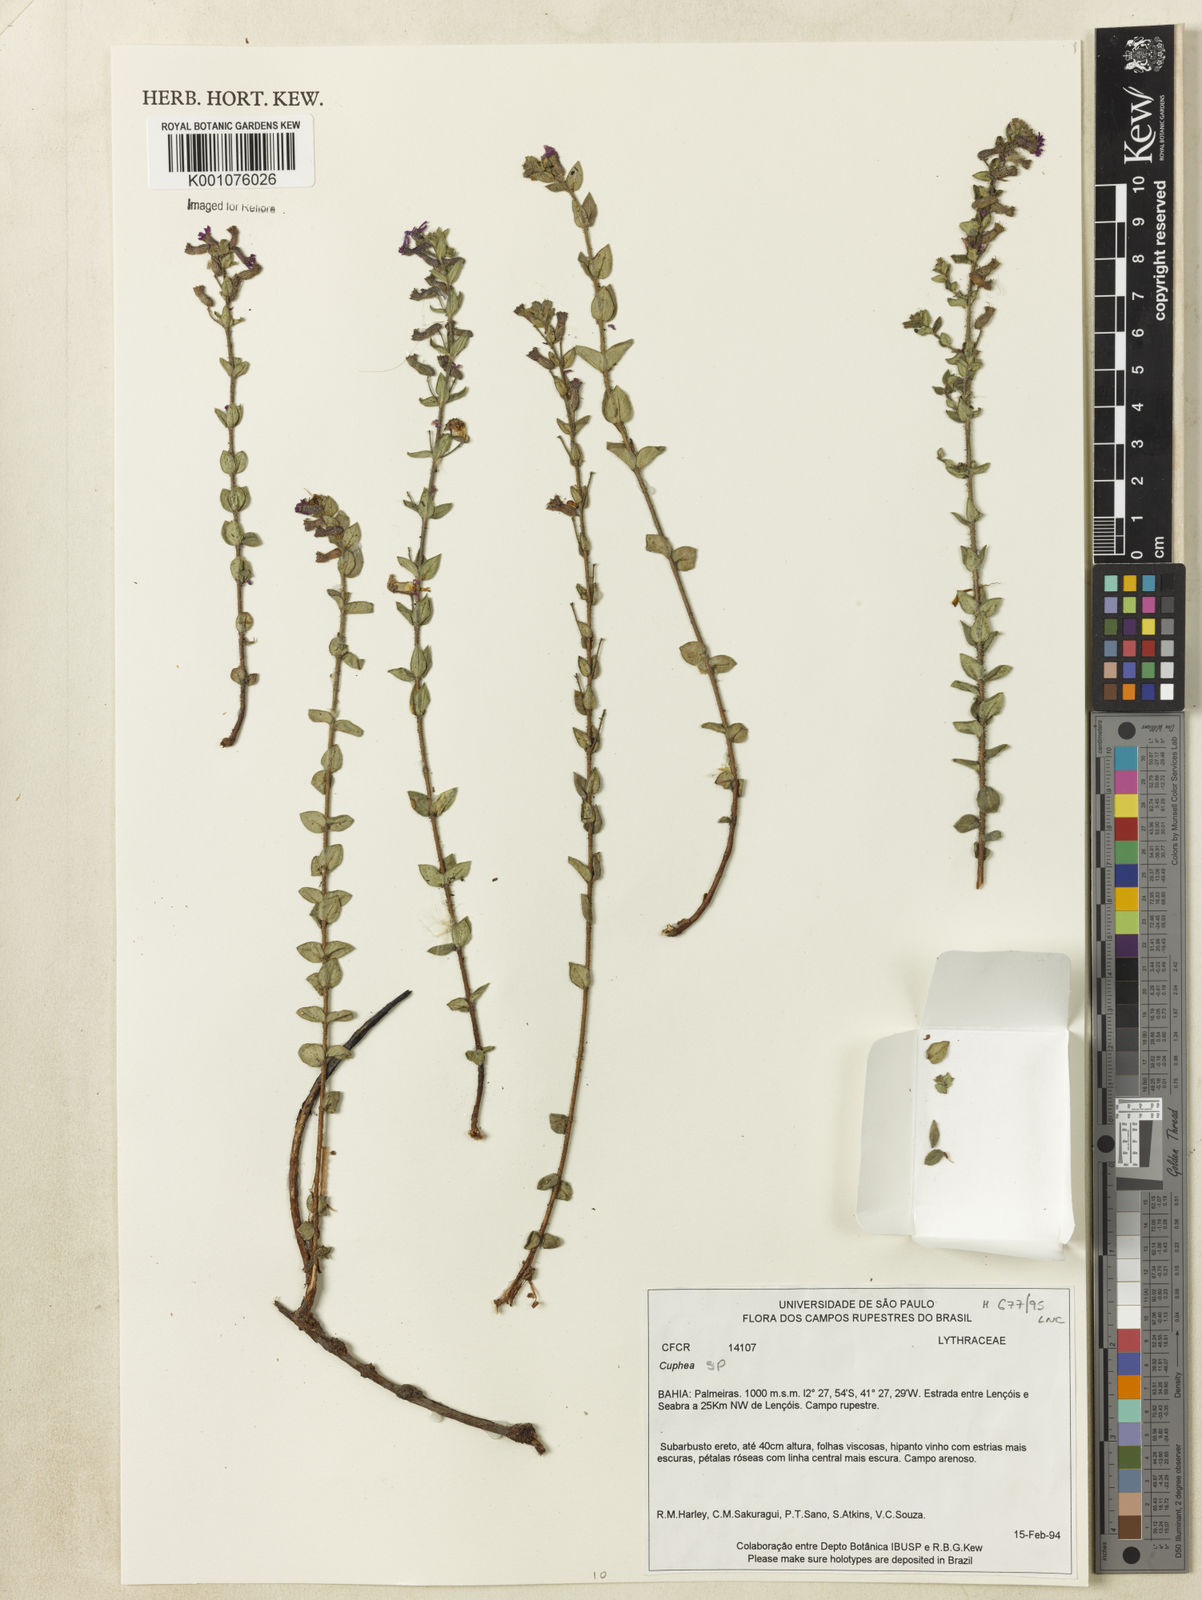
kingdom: Plantae
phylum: Tracheophyta
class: Magnoliopsida
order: Myrtales
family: Lythraceae
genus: Cuphea
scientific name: Cuphea
